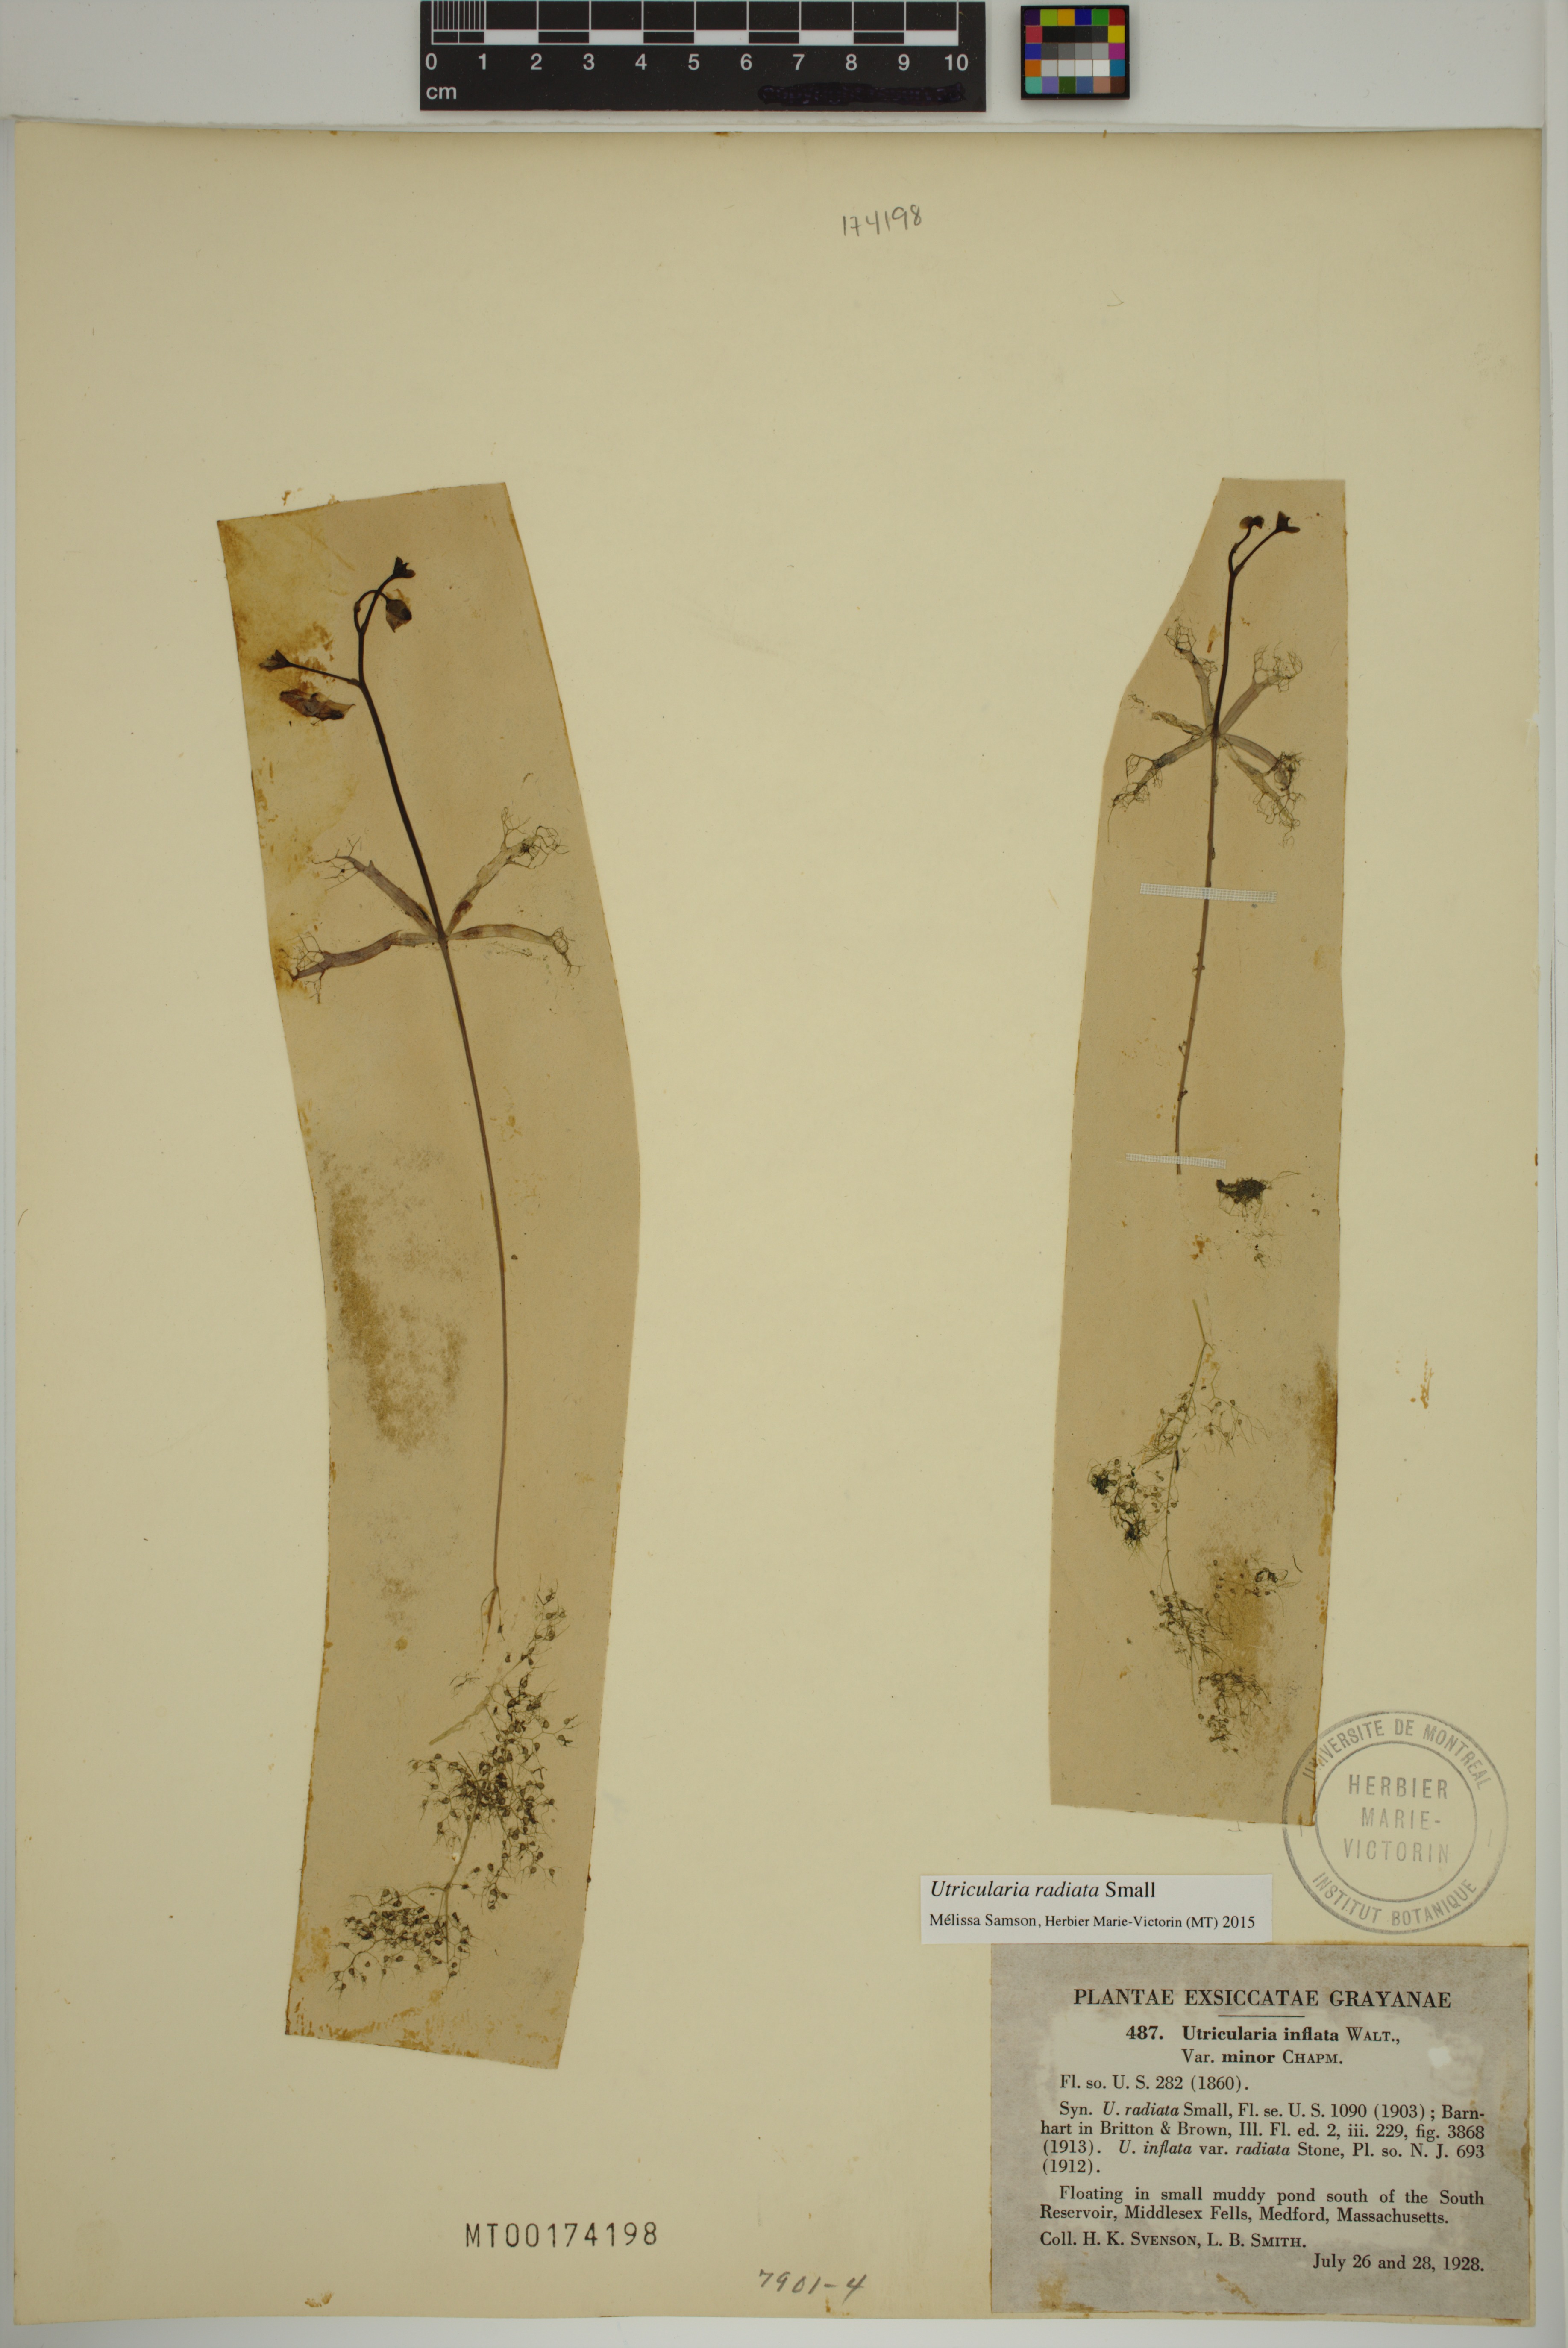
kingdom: Plantae
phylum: Tracheophyta
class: Magnoliopsida
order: Lamiales
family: Lentibulariaceae
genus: Utricularia
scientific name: Utricularia radiata
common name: Floating bladderwort
